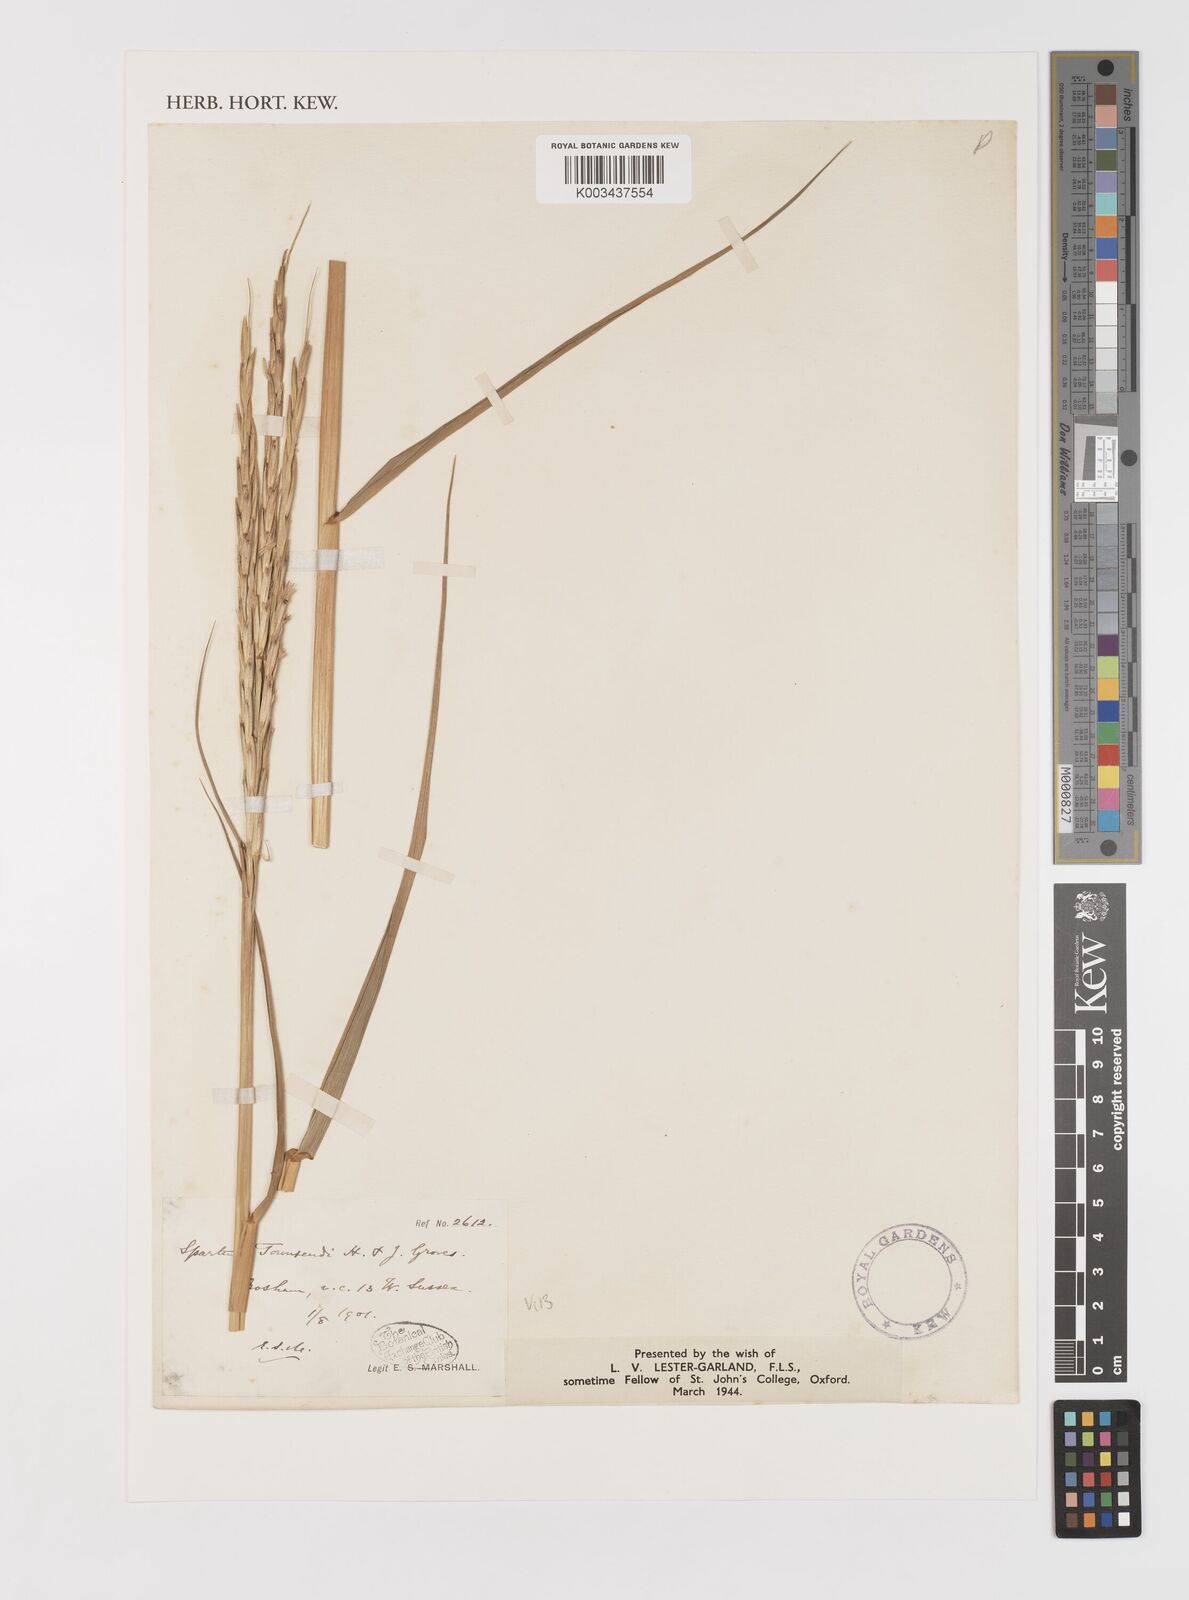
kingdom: Plantae
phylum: Tracheophyta
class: Liliopsida
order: Poales
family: Poaceae
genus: Sporobolus
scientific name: Sporobolus anglicus
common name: English cordgrass
